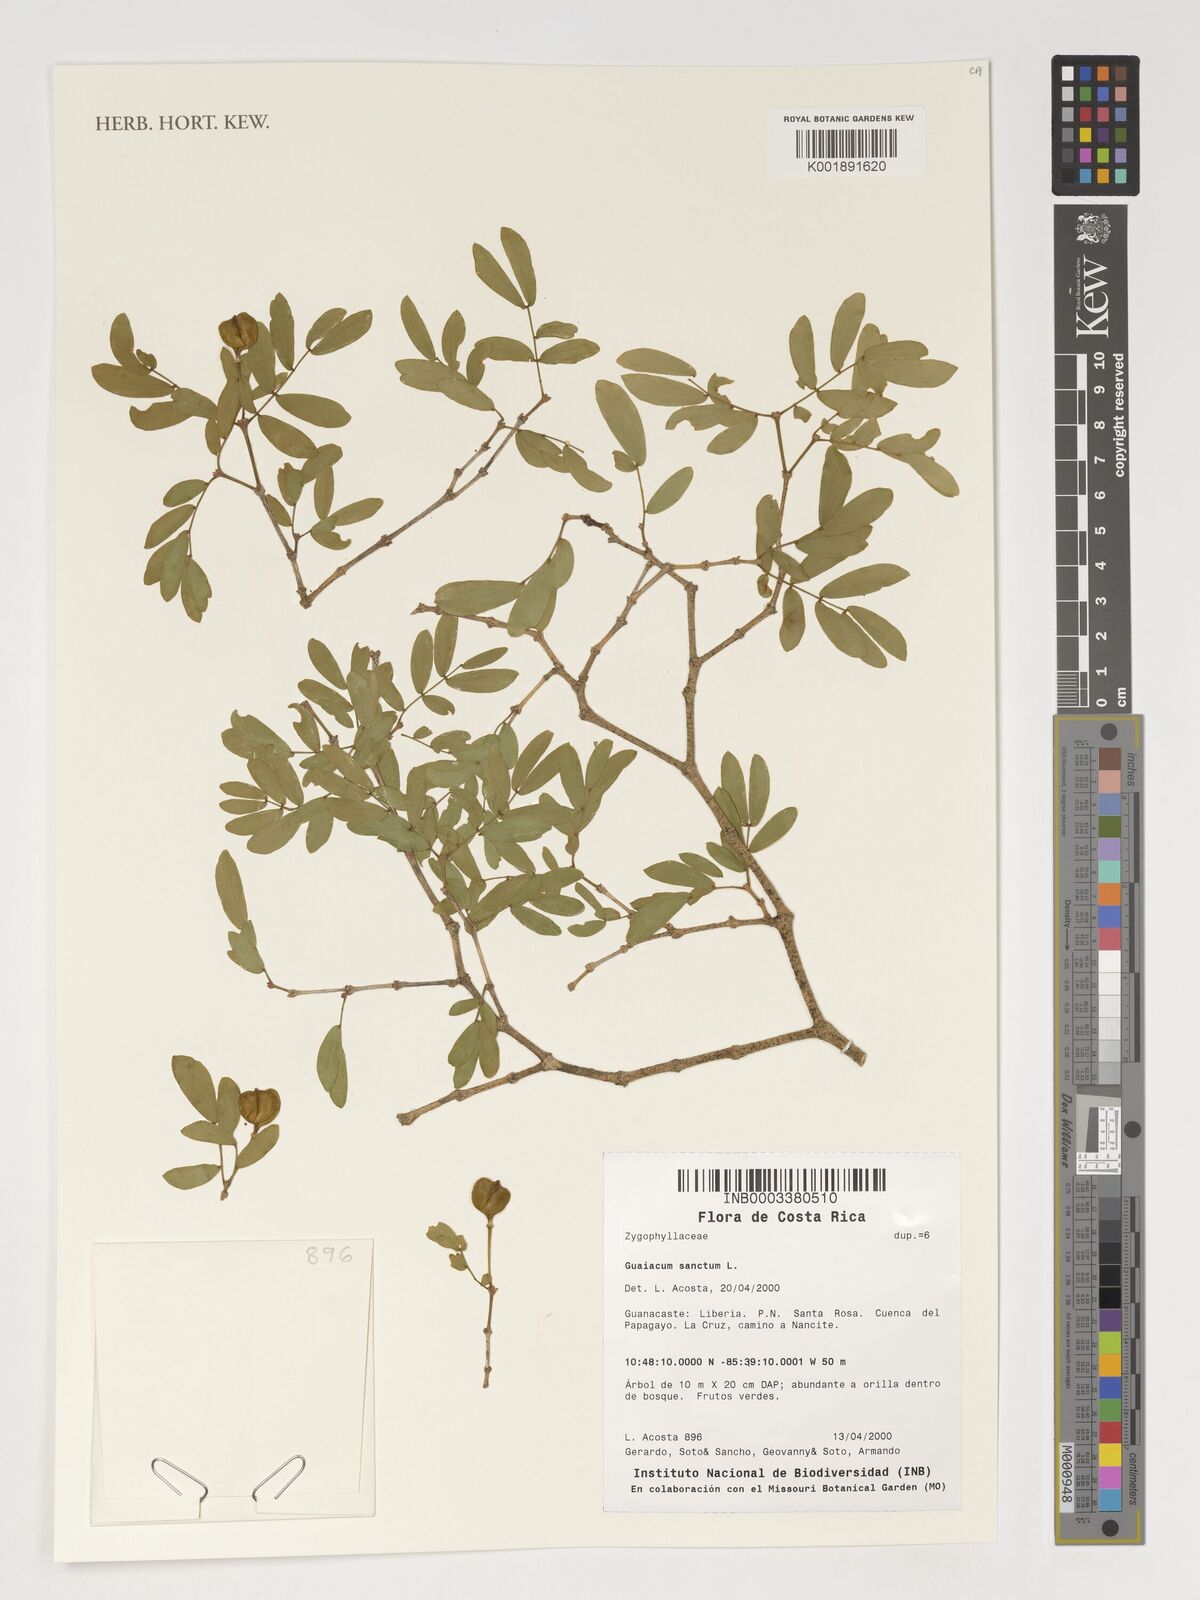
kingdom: Plantae
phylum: Tracheophyta
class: Magnoliopsida
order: Zygophyllales
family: Zygophyllaceae
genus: Guaiacum
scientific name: Guaiacum sanctum
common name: Holywood
